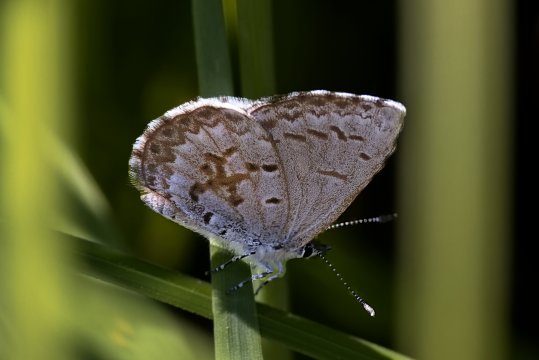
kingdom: Animalia
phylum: Arthropoda
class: Insecta
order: Lepidoptera
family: Lycaenidae
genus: Celastrina
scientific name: Celastrina lucia
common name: Northern Spring Azure
